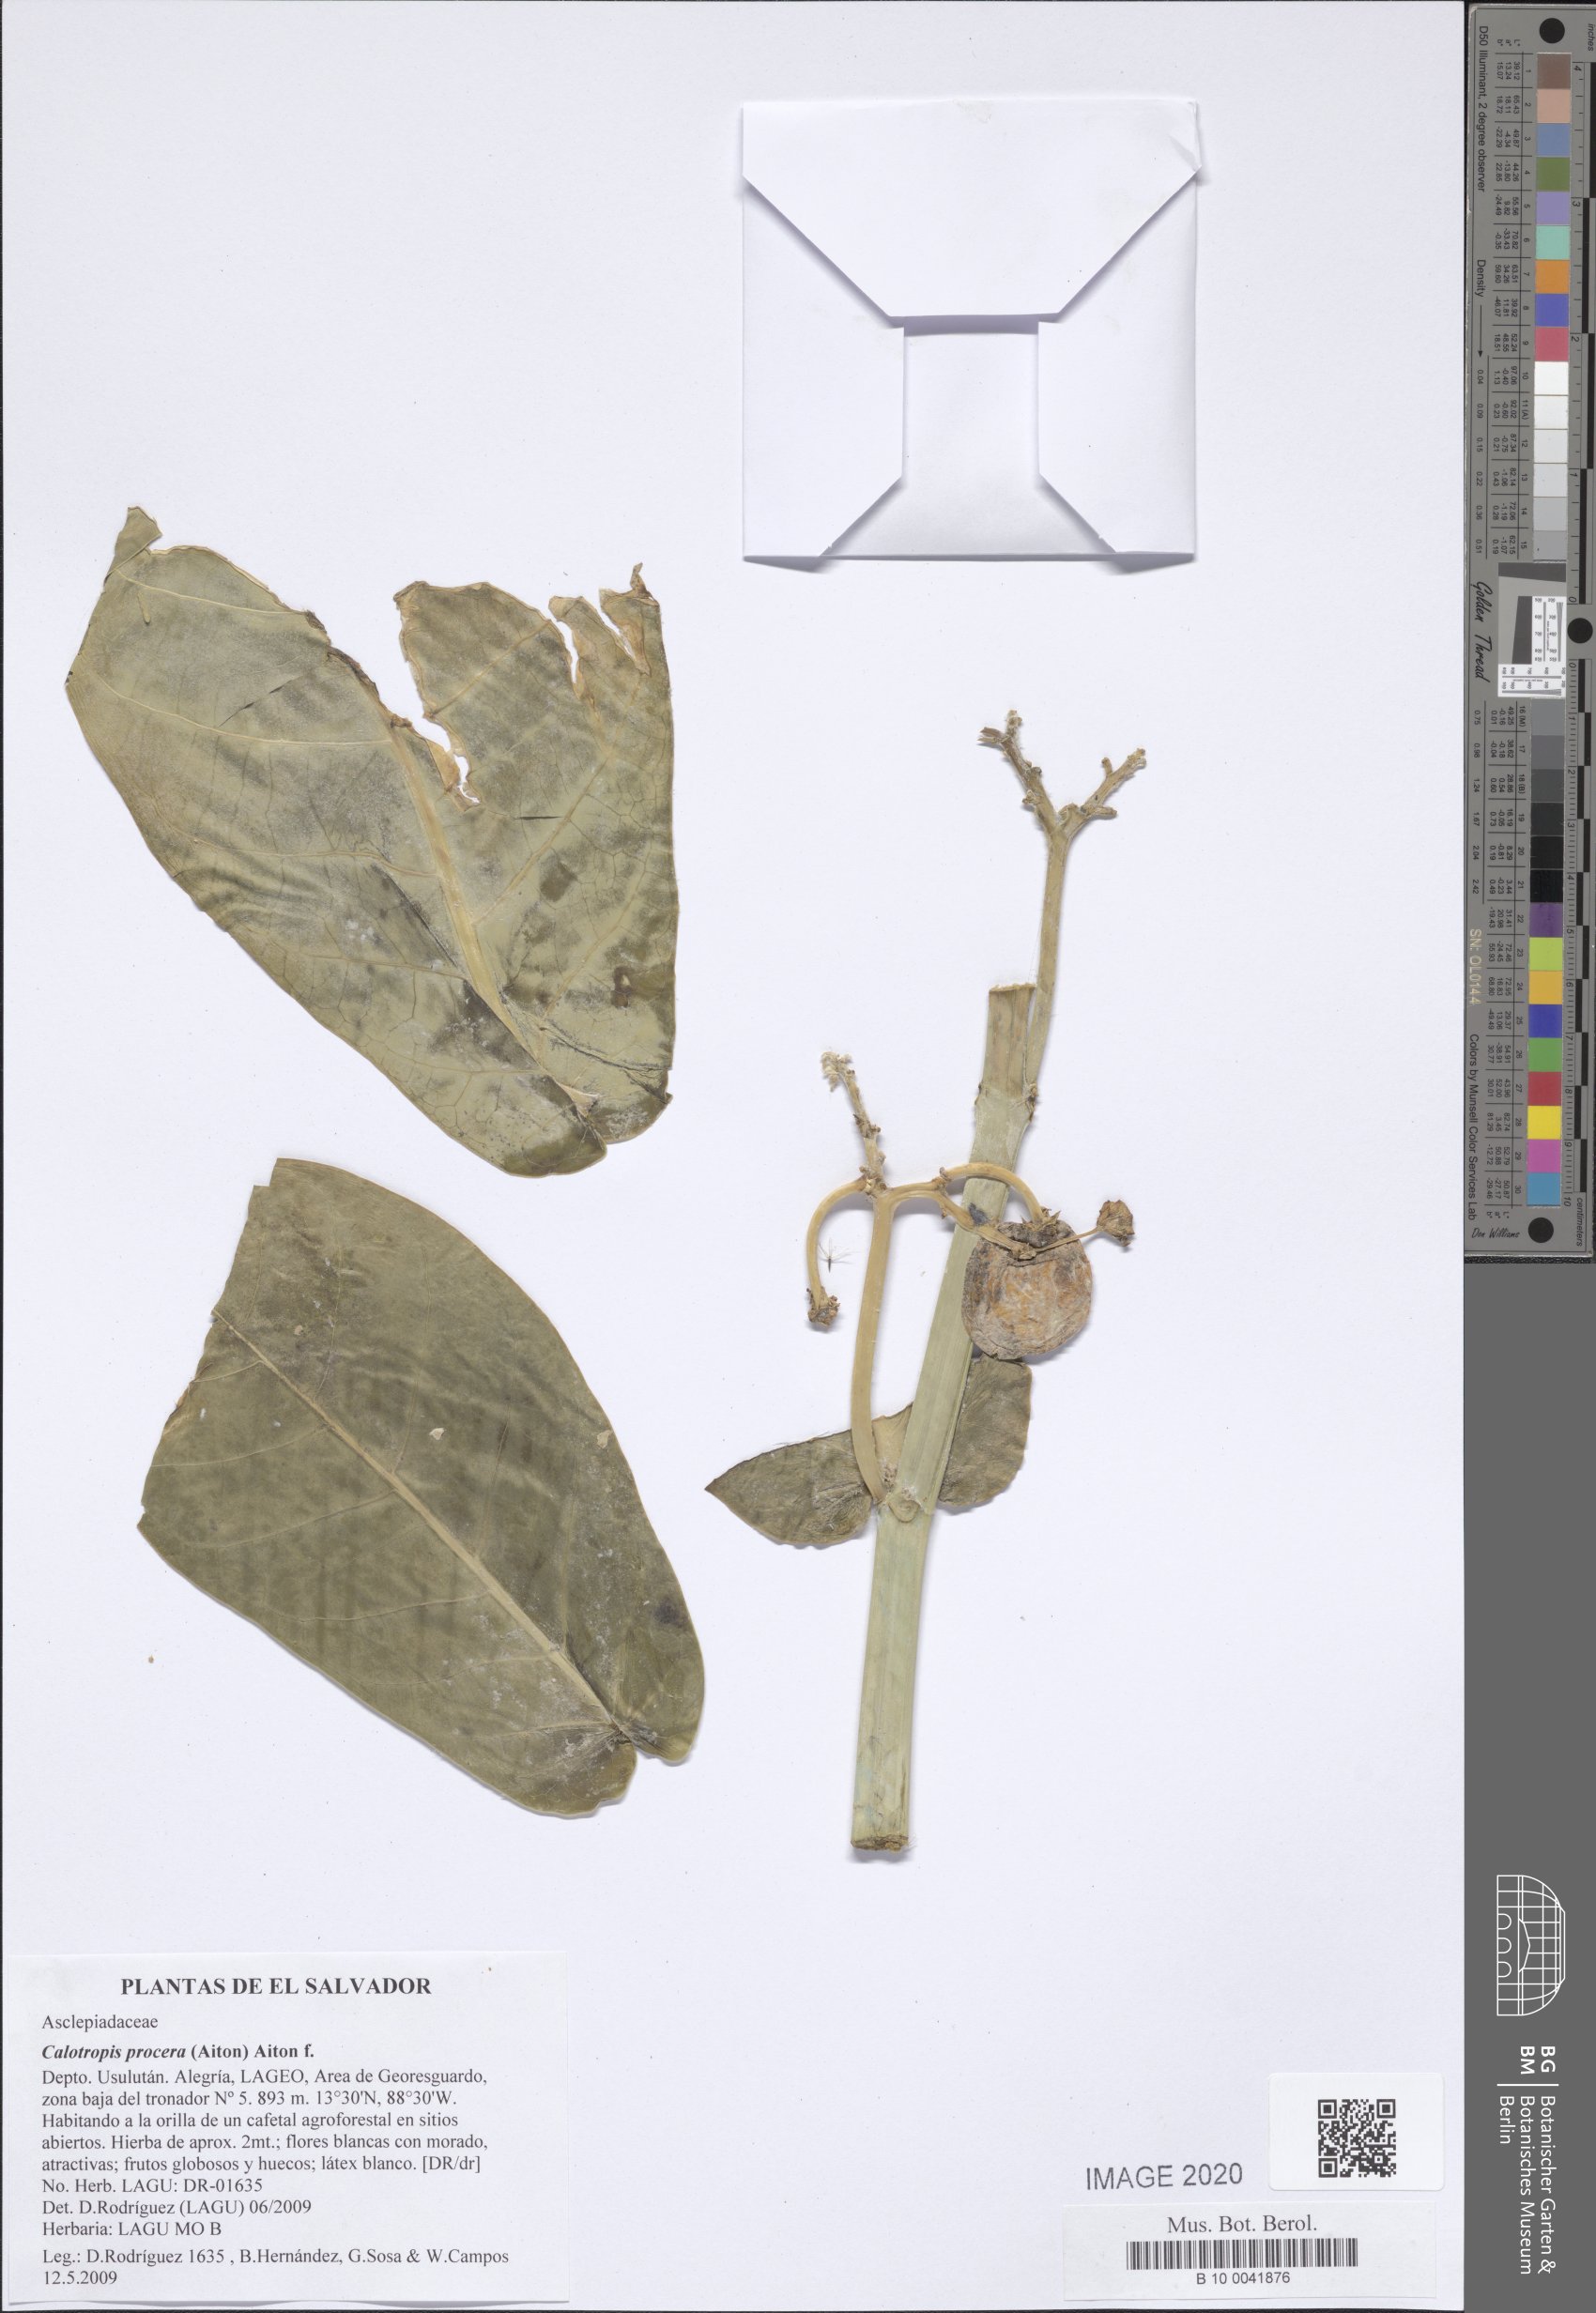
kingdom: Plantae
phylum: Tracheophyta
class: Magnoliopsida
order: Gentianales
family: Apocynaceae
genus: Calotropis
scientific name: Calotropis procera
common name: Roostertree
